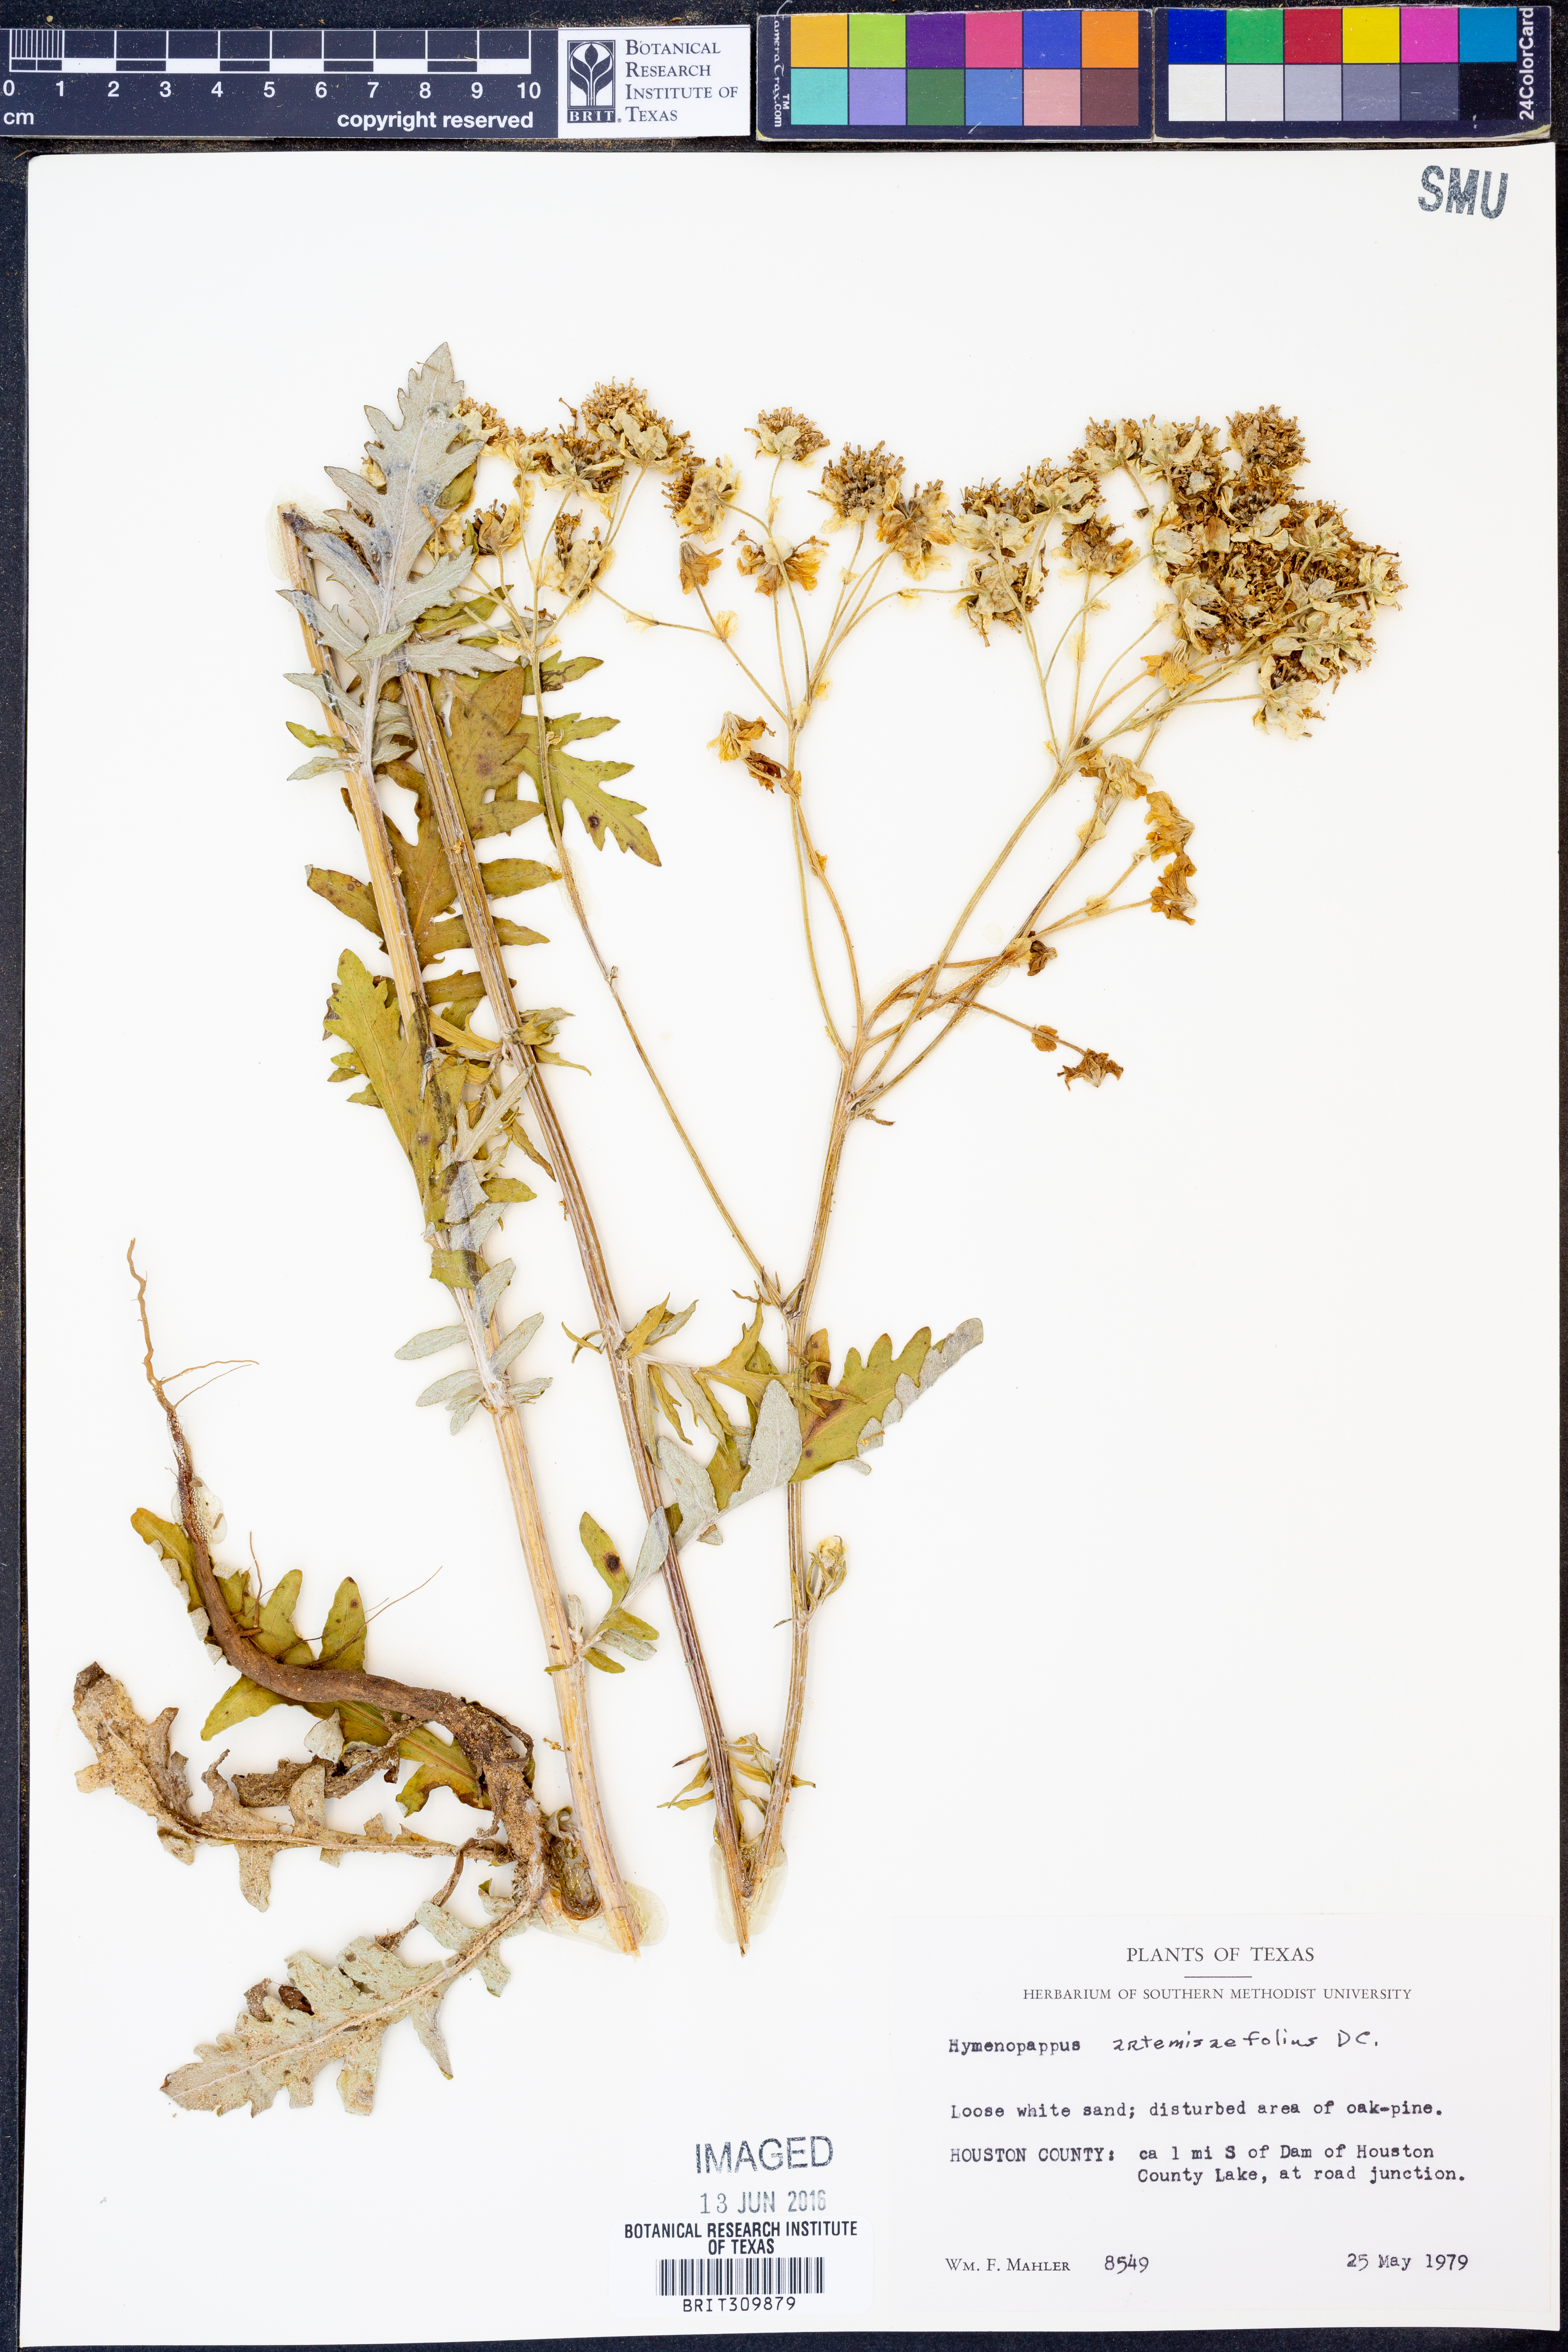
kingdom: Plantae
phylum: Tracheophyta
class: Magnoliopsida
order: Asterales
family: Asteraceae
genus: Hymenopappus
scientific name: Hymenopappus artemisiifolius
